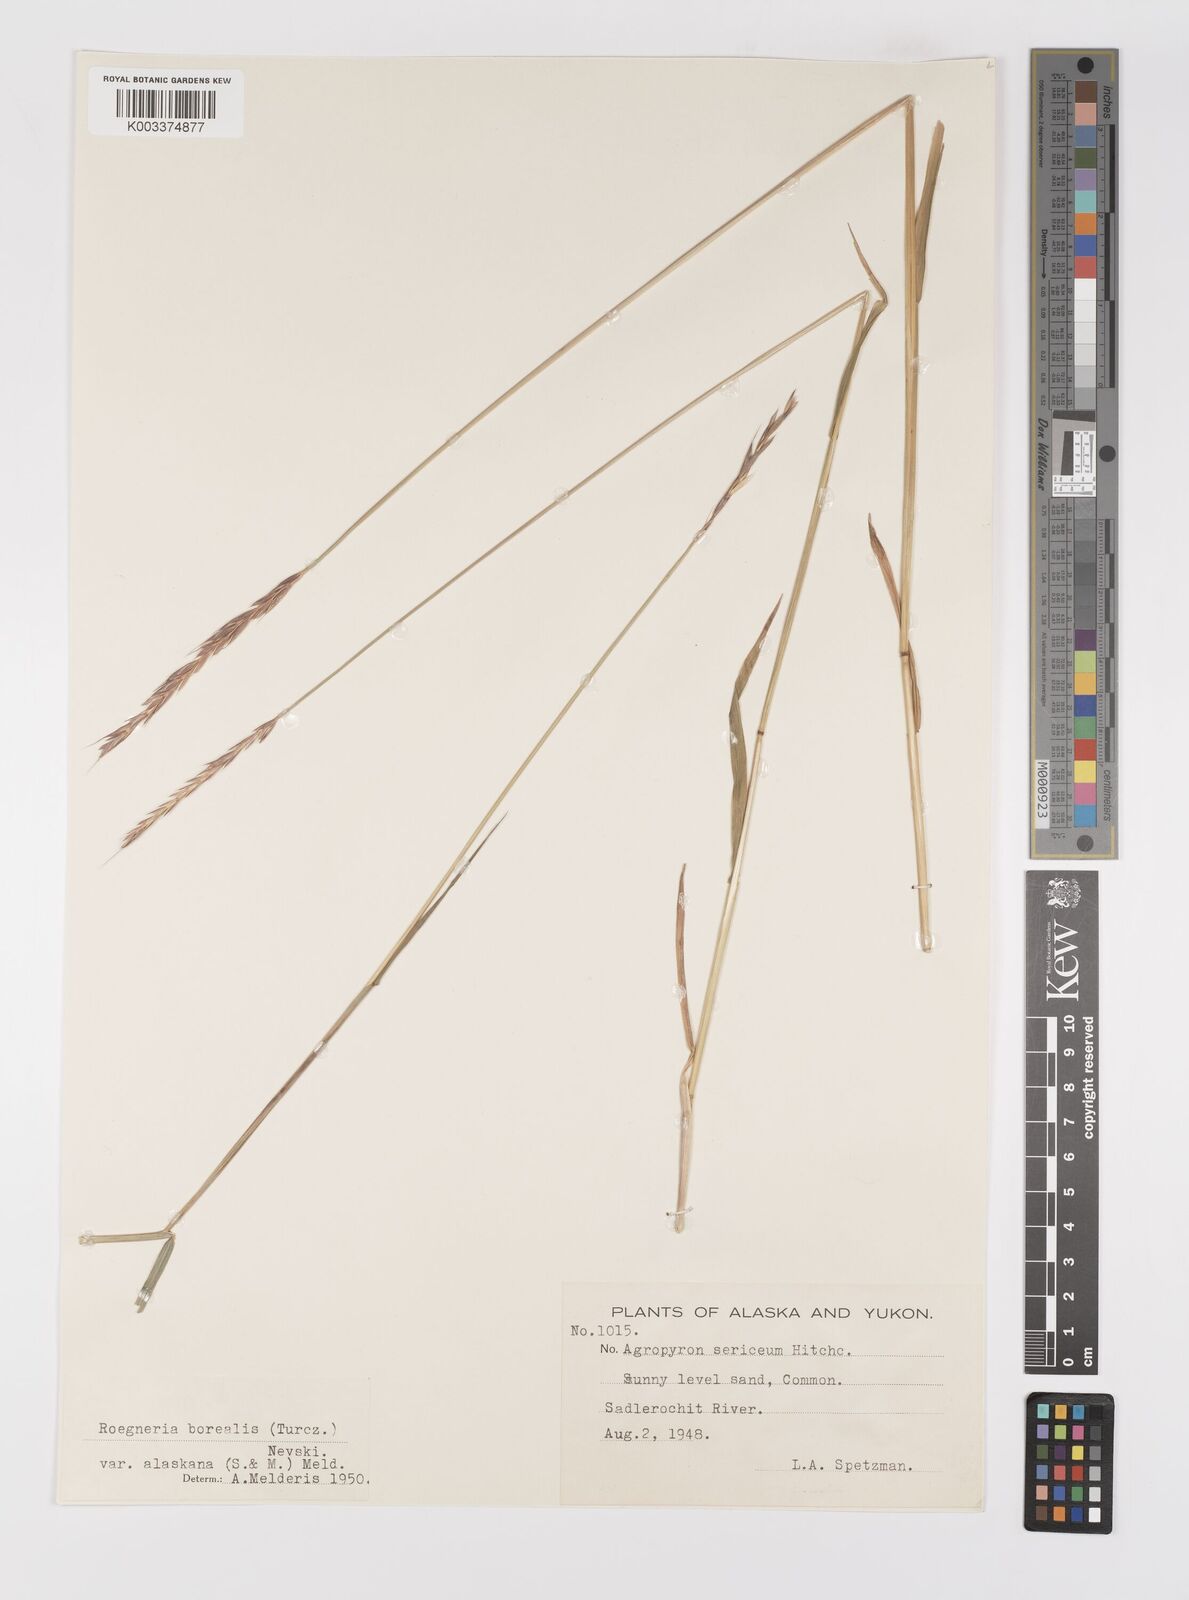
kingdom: Plantae
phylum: Tracheophyta
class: Liliopsida
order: Poales
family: Poaceae
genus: Elymus
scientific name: Elymus violaceus
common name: Arctic wheatgrass
